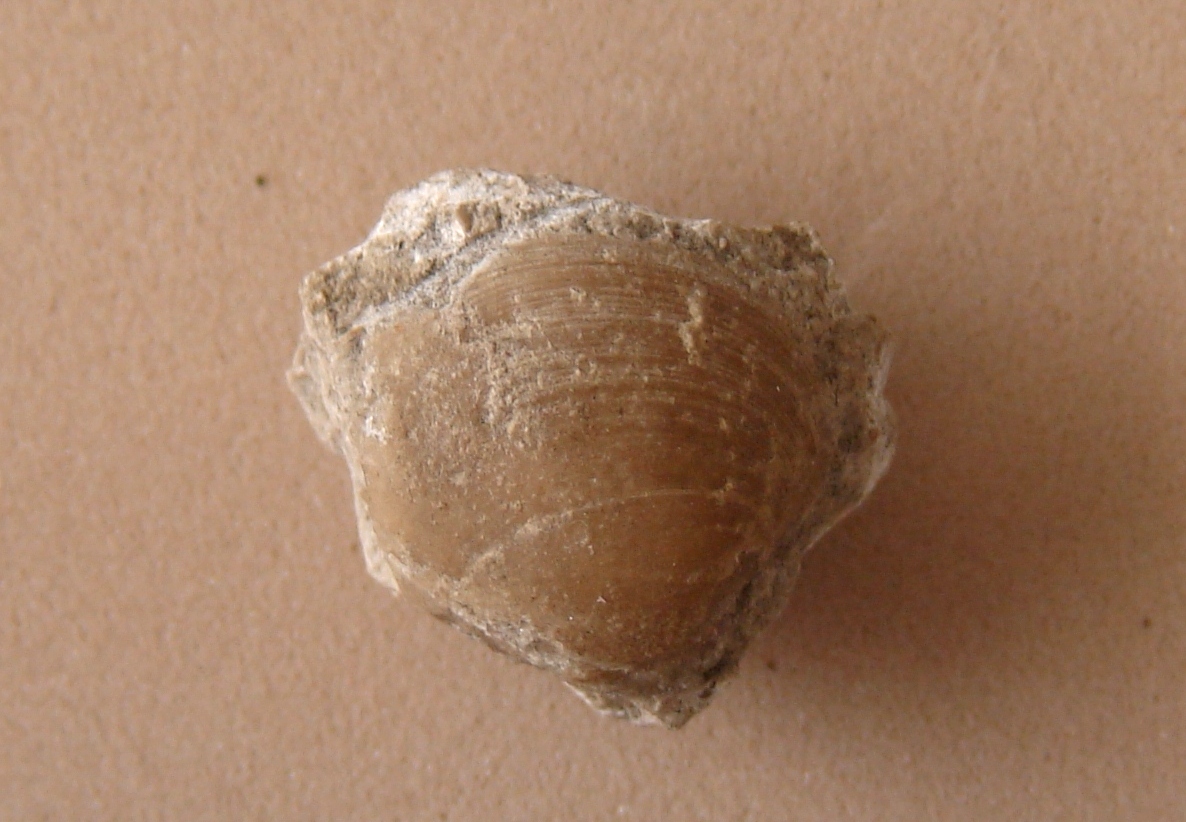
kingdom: Animalia
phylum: Mollusca
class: Bivalvia
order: Carditida
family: Carditidae
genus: Tutcheria
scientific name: Tutcheria parvula
